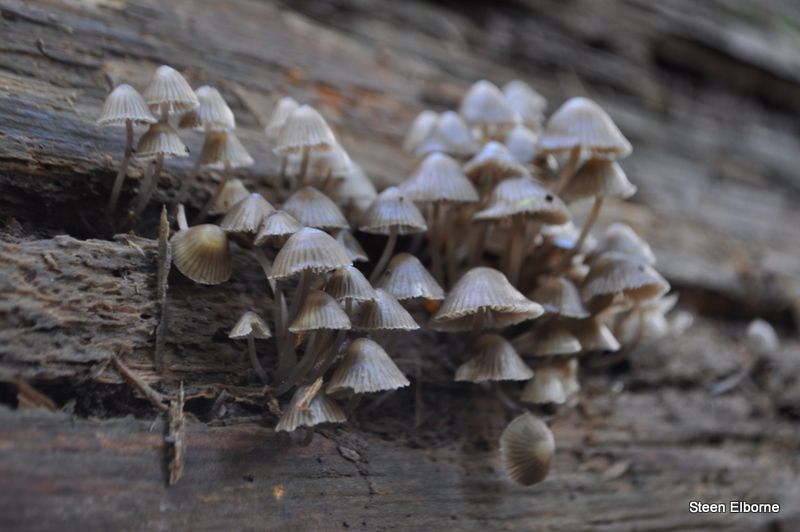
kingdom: Fungi
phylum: Basidiomycota
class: Agaricomycetes
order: Agaricales
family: Mycenaceae
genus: Mycena
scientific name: Mycena stipata
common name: stinkende huesvamp
